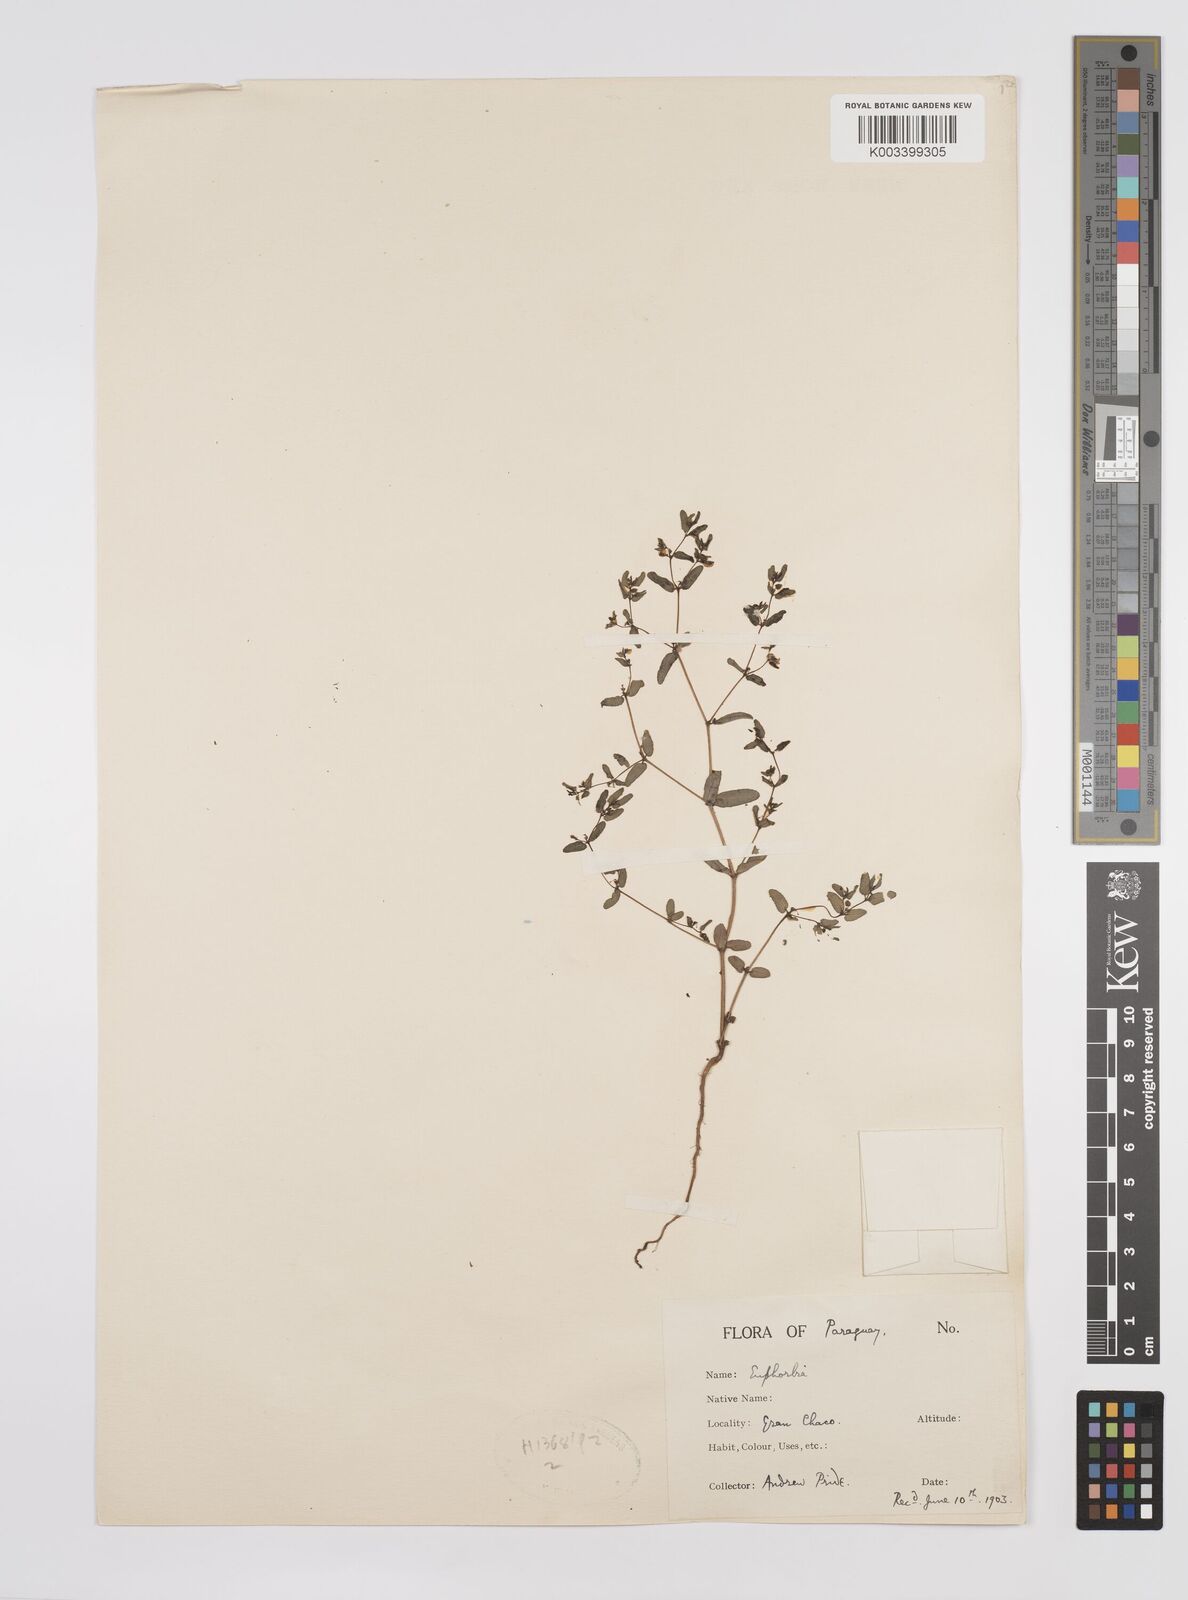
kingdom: Plantae
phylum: Tracheophyta
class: Magnoliopsida
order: Malpighiales
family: Euphorbiaceae
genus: Euphorbia
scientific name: Euphorbia
